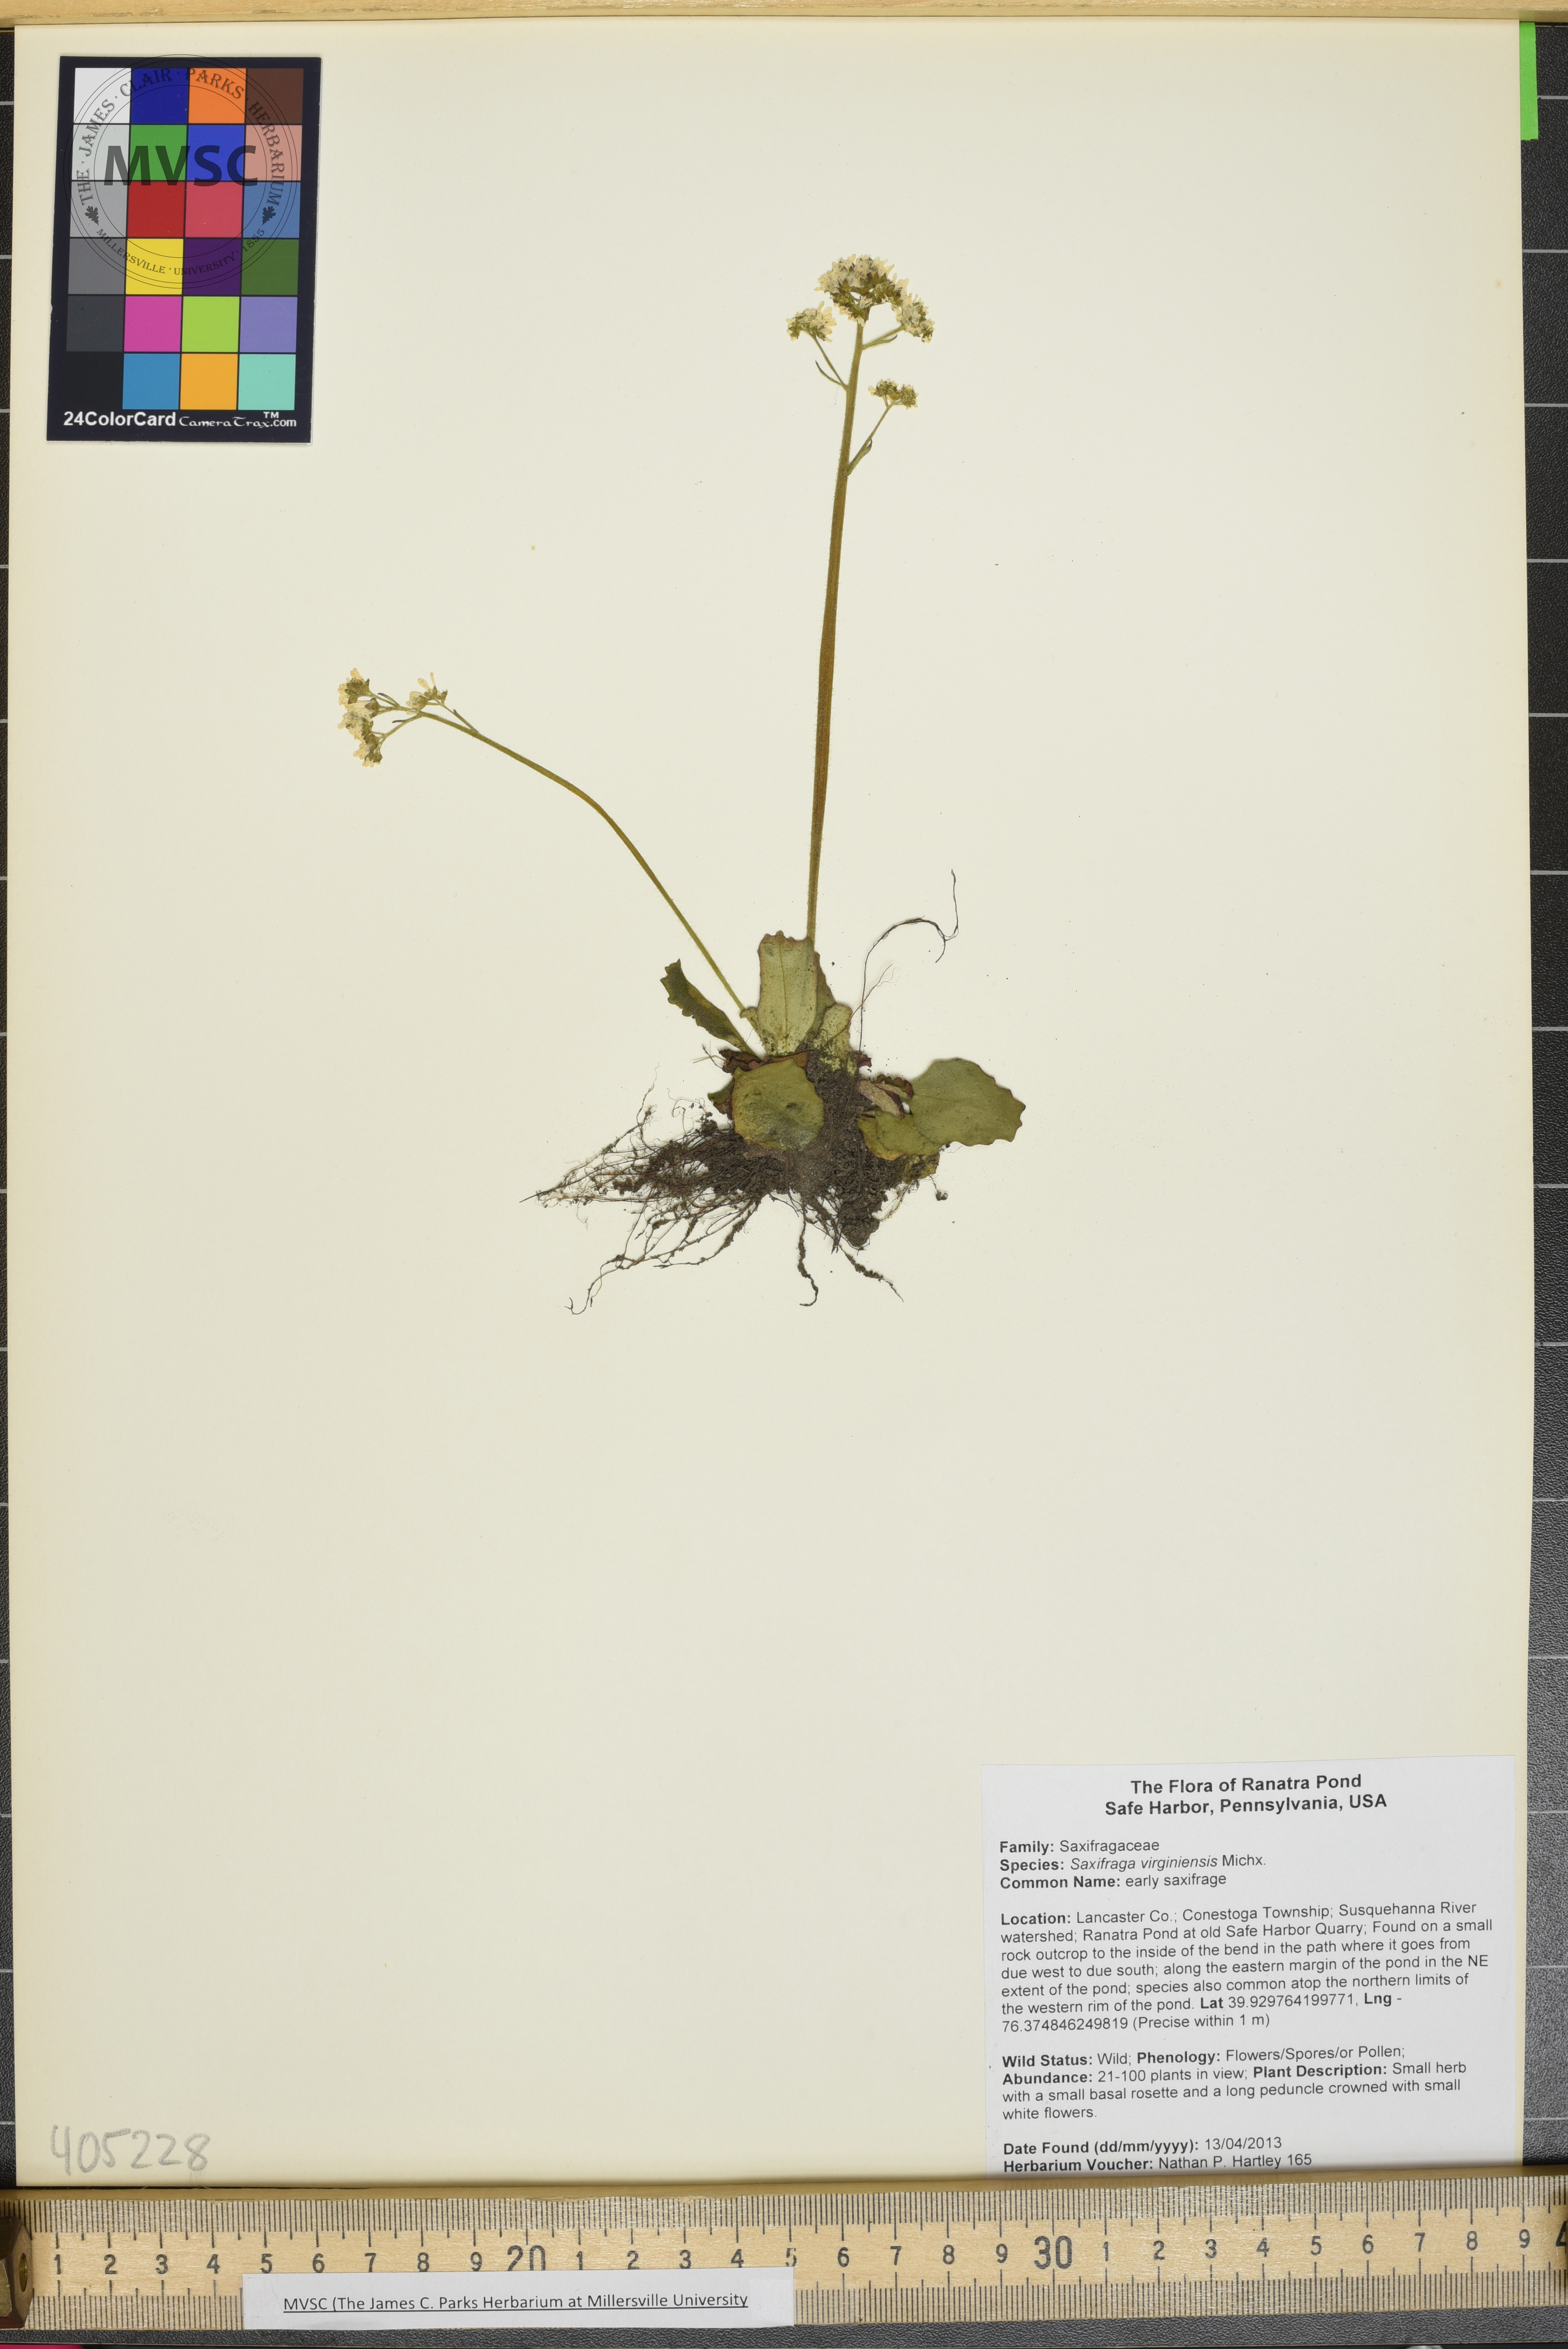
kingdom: Plantae
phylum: Tracheophyta
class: Magnoliopsida
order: Saxifragales
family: Saxifragaceae
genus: Micranthes
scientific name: Micranthes virginiensis
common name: early saxifrage
